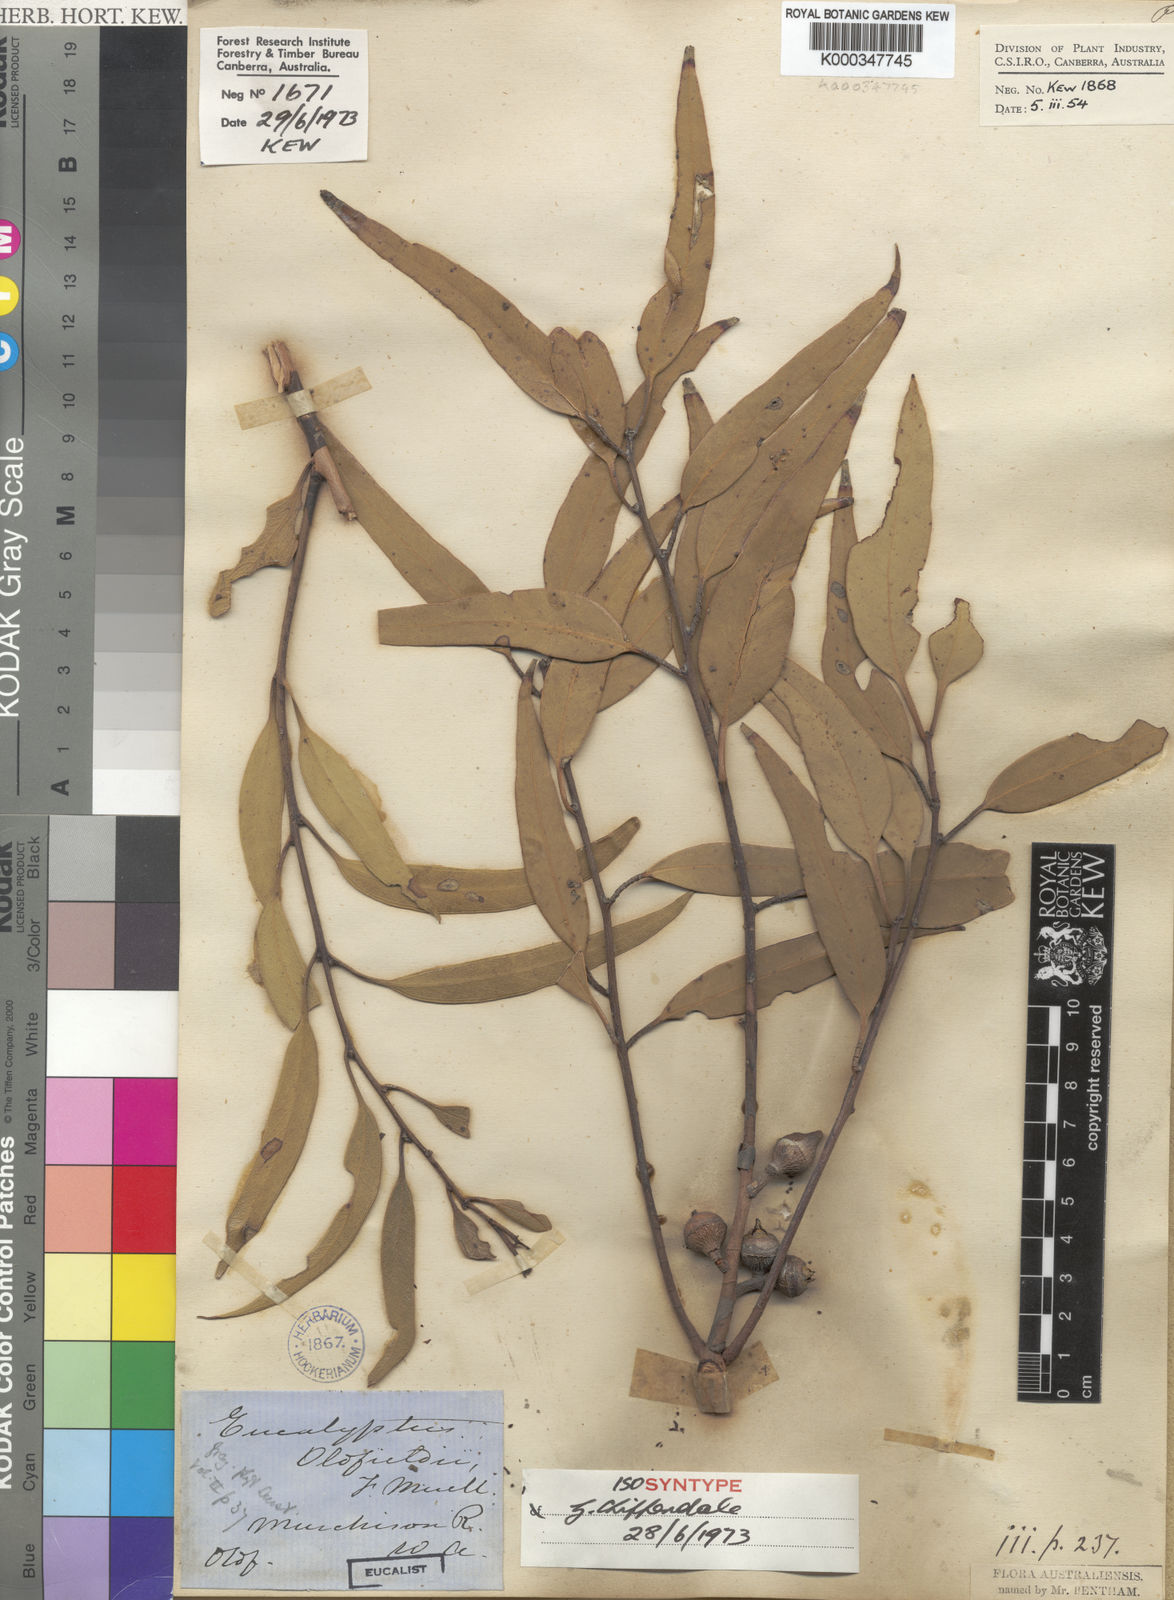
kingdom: Plantae
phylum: Tracheophyta
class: Magnoliopsida
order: Myrtales
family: Myrtaceae
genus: Eucalyptus
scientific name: Eucalyptus oldfieldii
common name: Old-fields mallee
